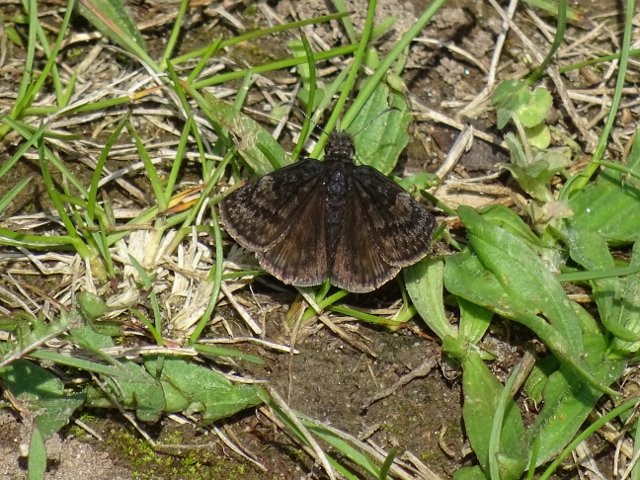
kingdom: Animalia
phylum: Arthropoda
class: Insecta
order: Lepidoptera
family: Hesperiidae
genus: Erynnis
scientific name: Erynnis
